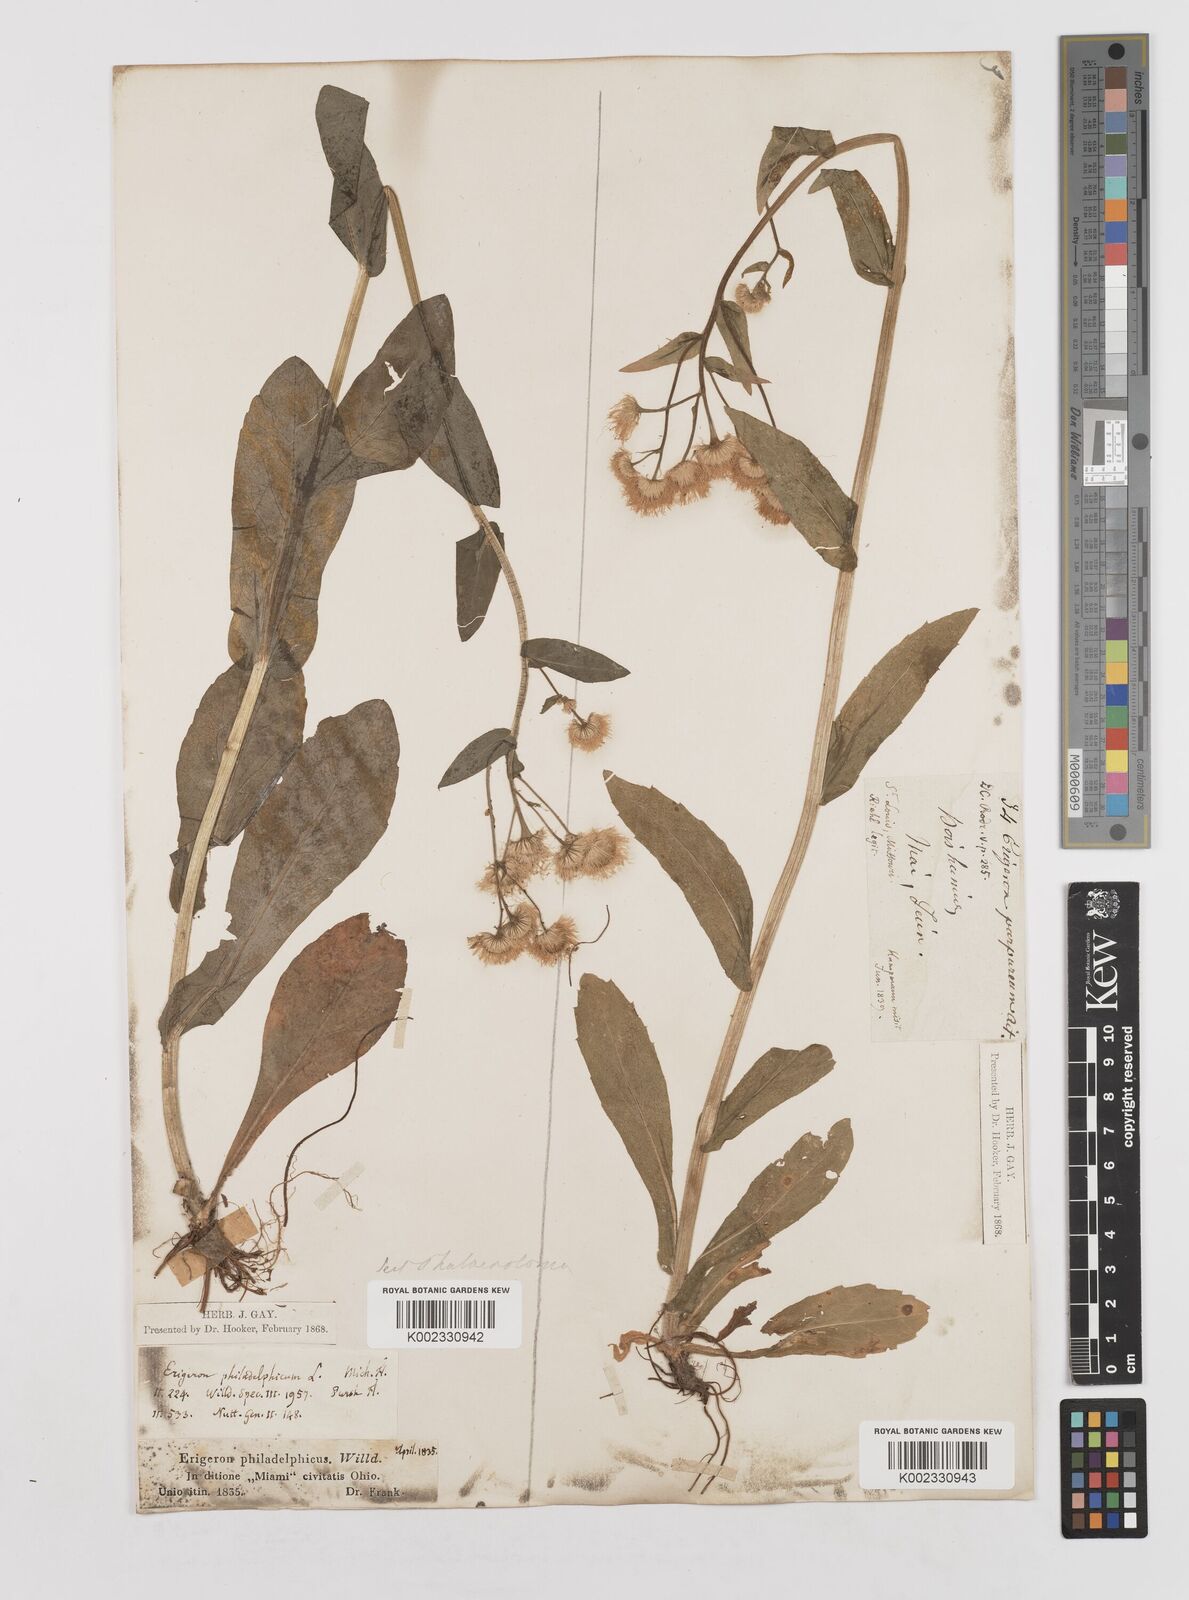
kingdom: Plantae
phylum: Tracheophyta
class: Magnoliopsida
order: Asterales
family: Asteraceae
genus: Erigeron
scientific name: Erigeron philadelphicus
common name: Robin's-plantain
